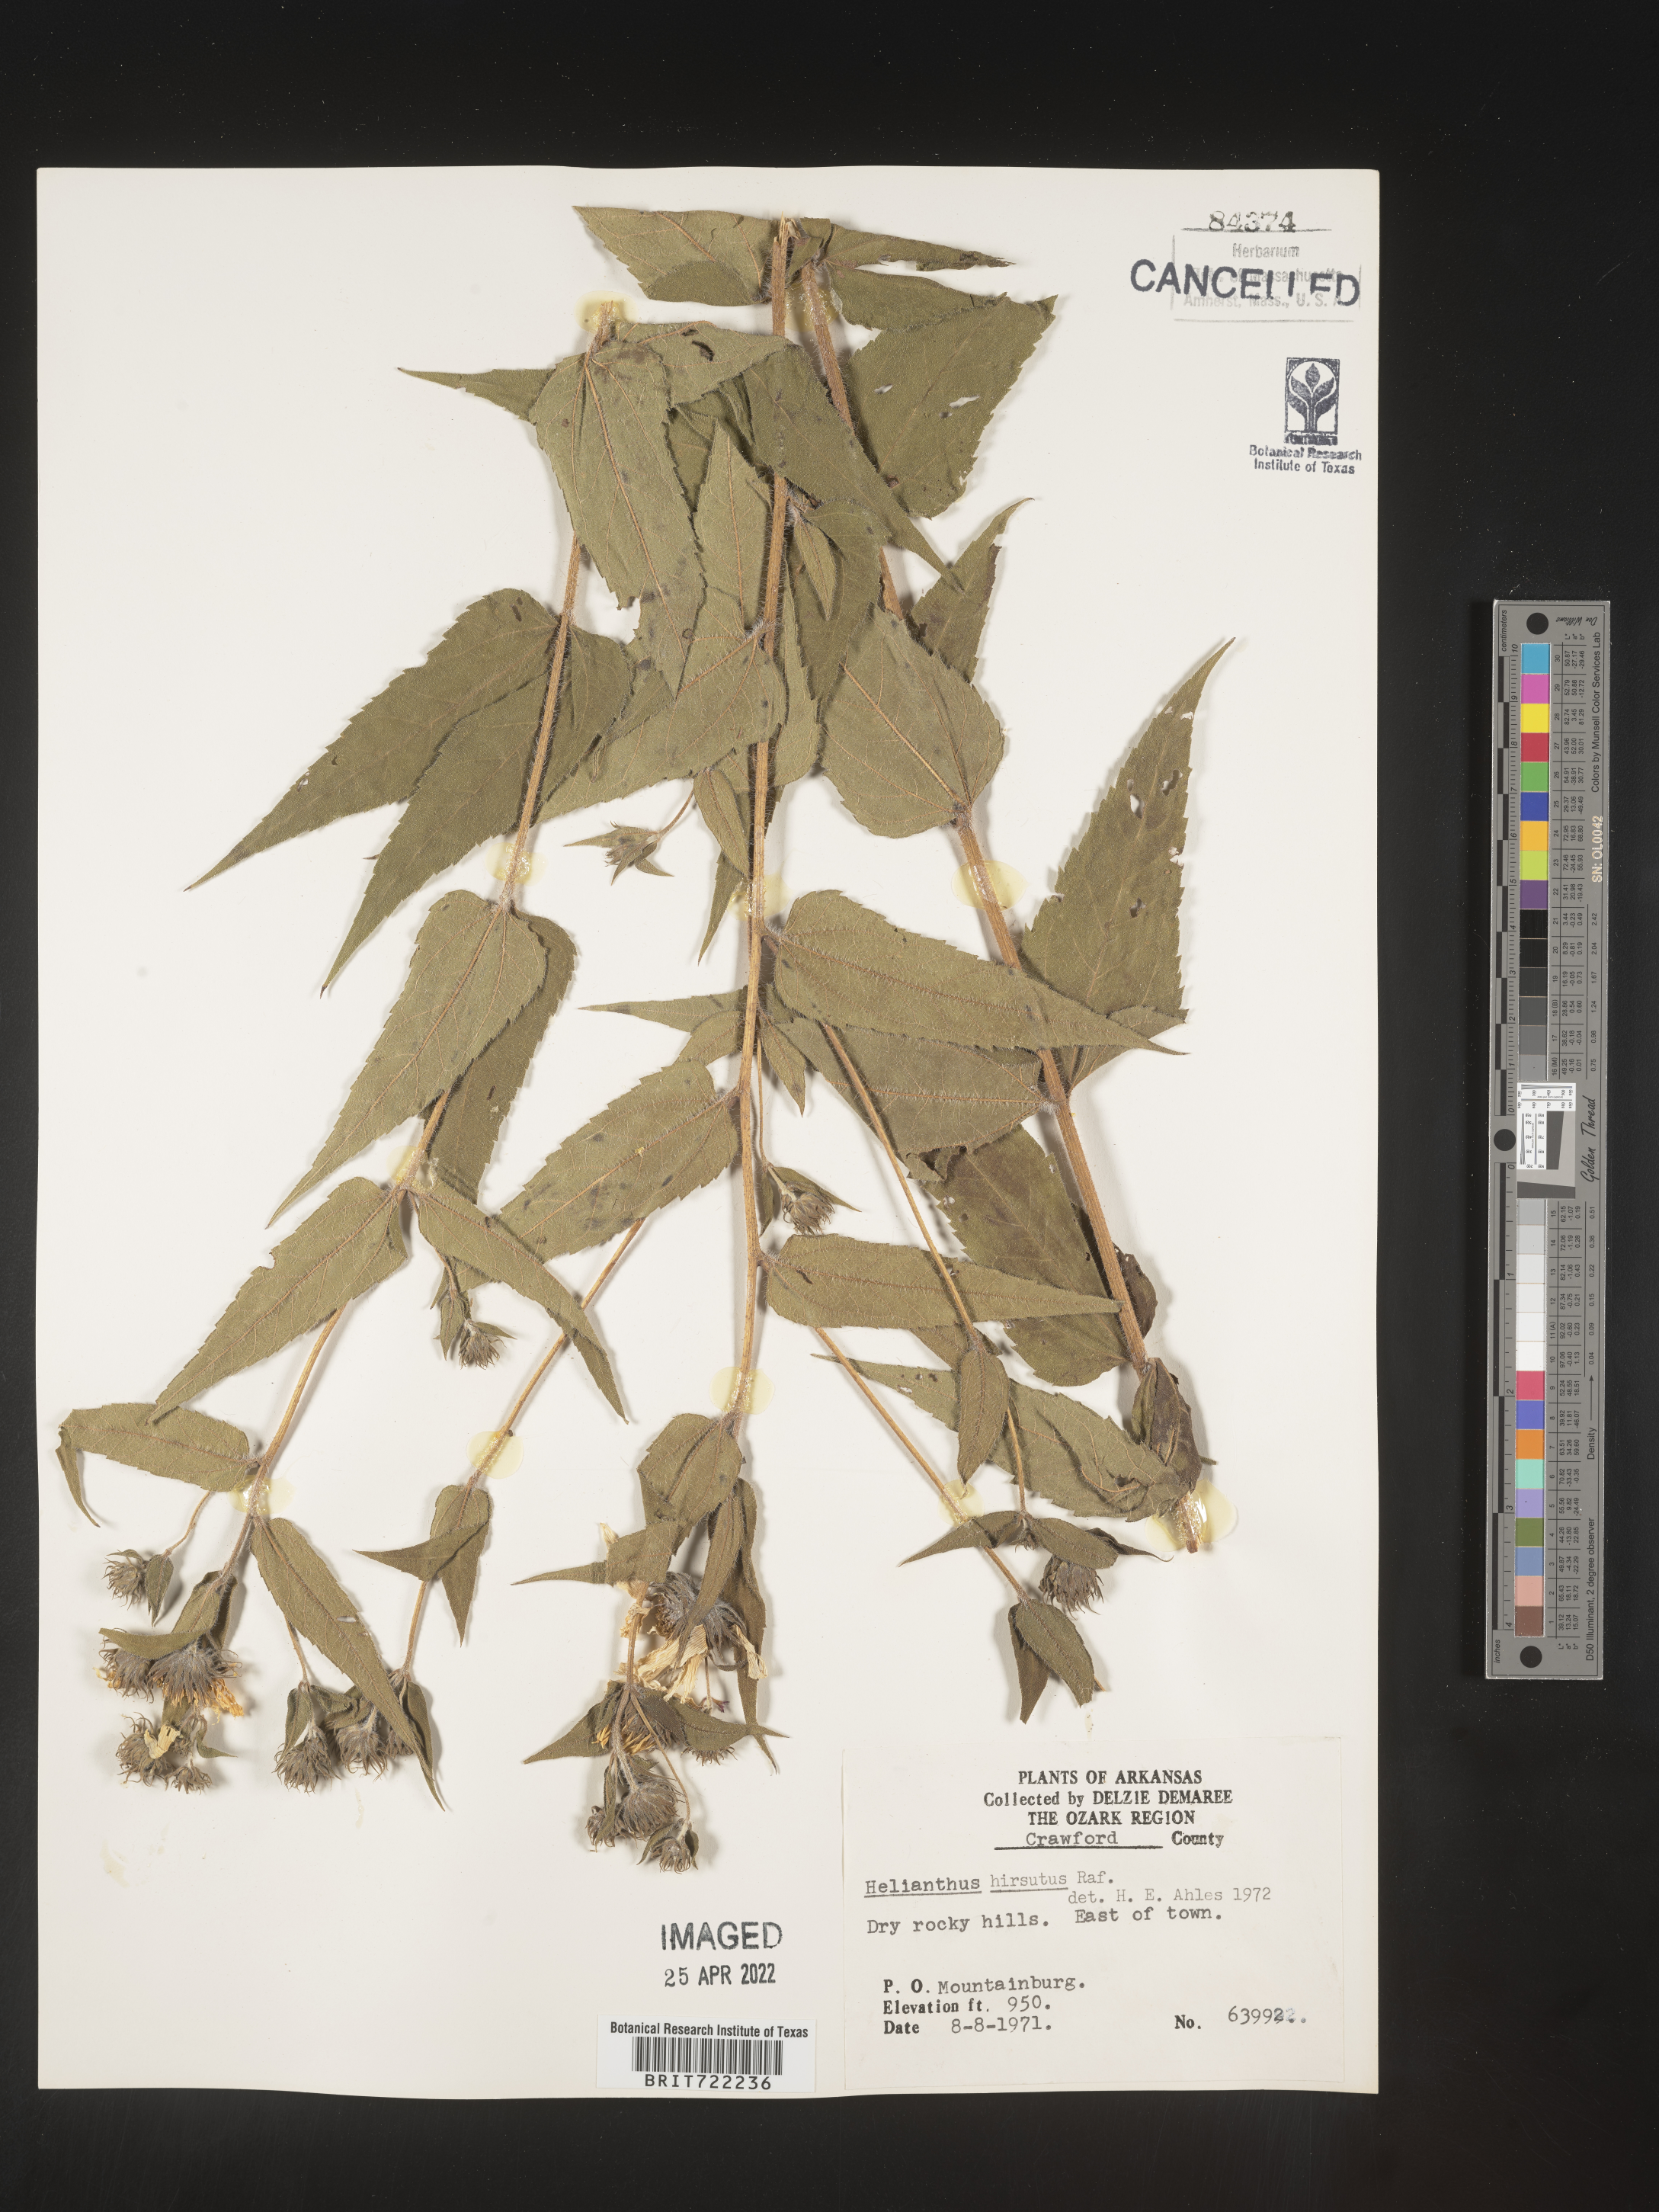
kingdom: Plantae
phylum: Tracheophyta
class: Magnoliopsida
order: Asterales
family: Asteraceae
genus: Helianthus
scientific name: Helianthus hirsutus
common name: Hairy sunflower
